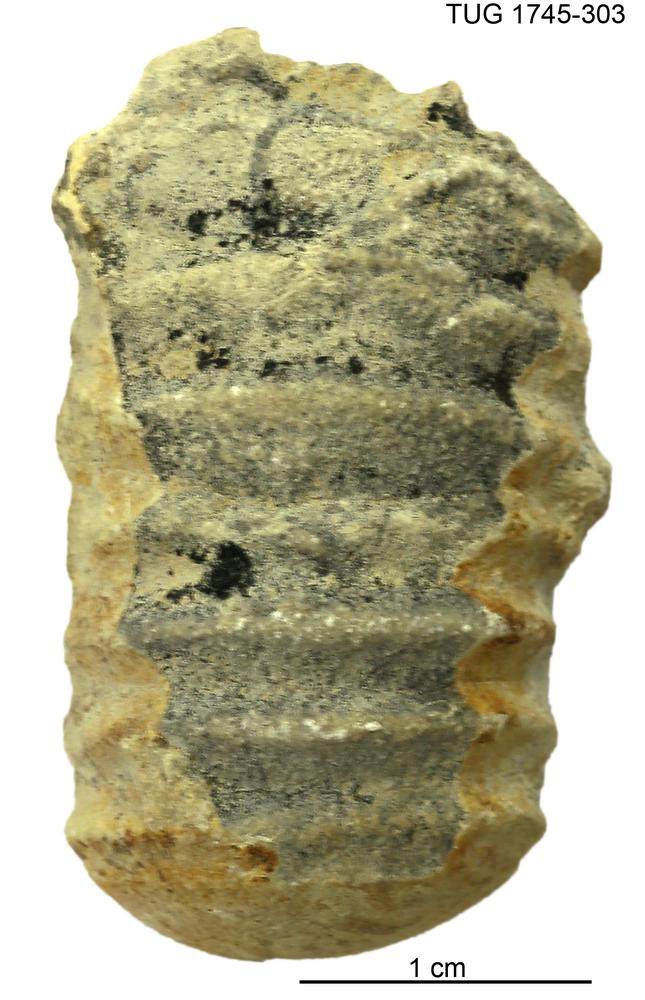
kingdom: Animalia
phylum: Mollusca
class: Cephalopoda
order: Nautilida
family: Nautilidae
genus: Dawsonoceras
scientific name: Dawsonoceras
